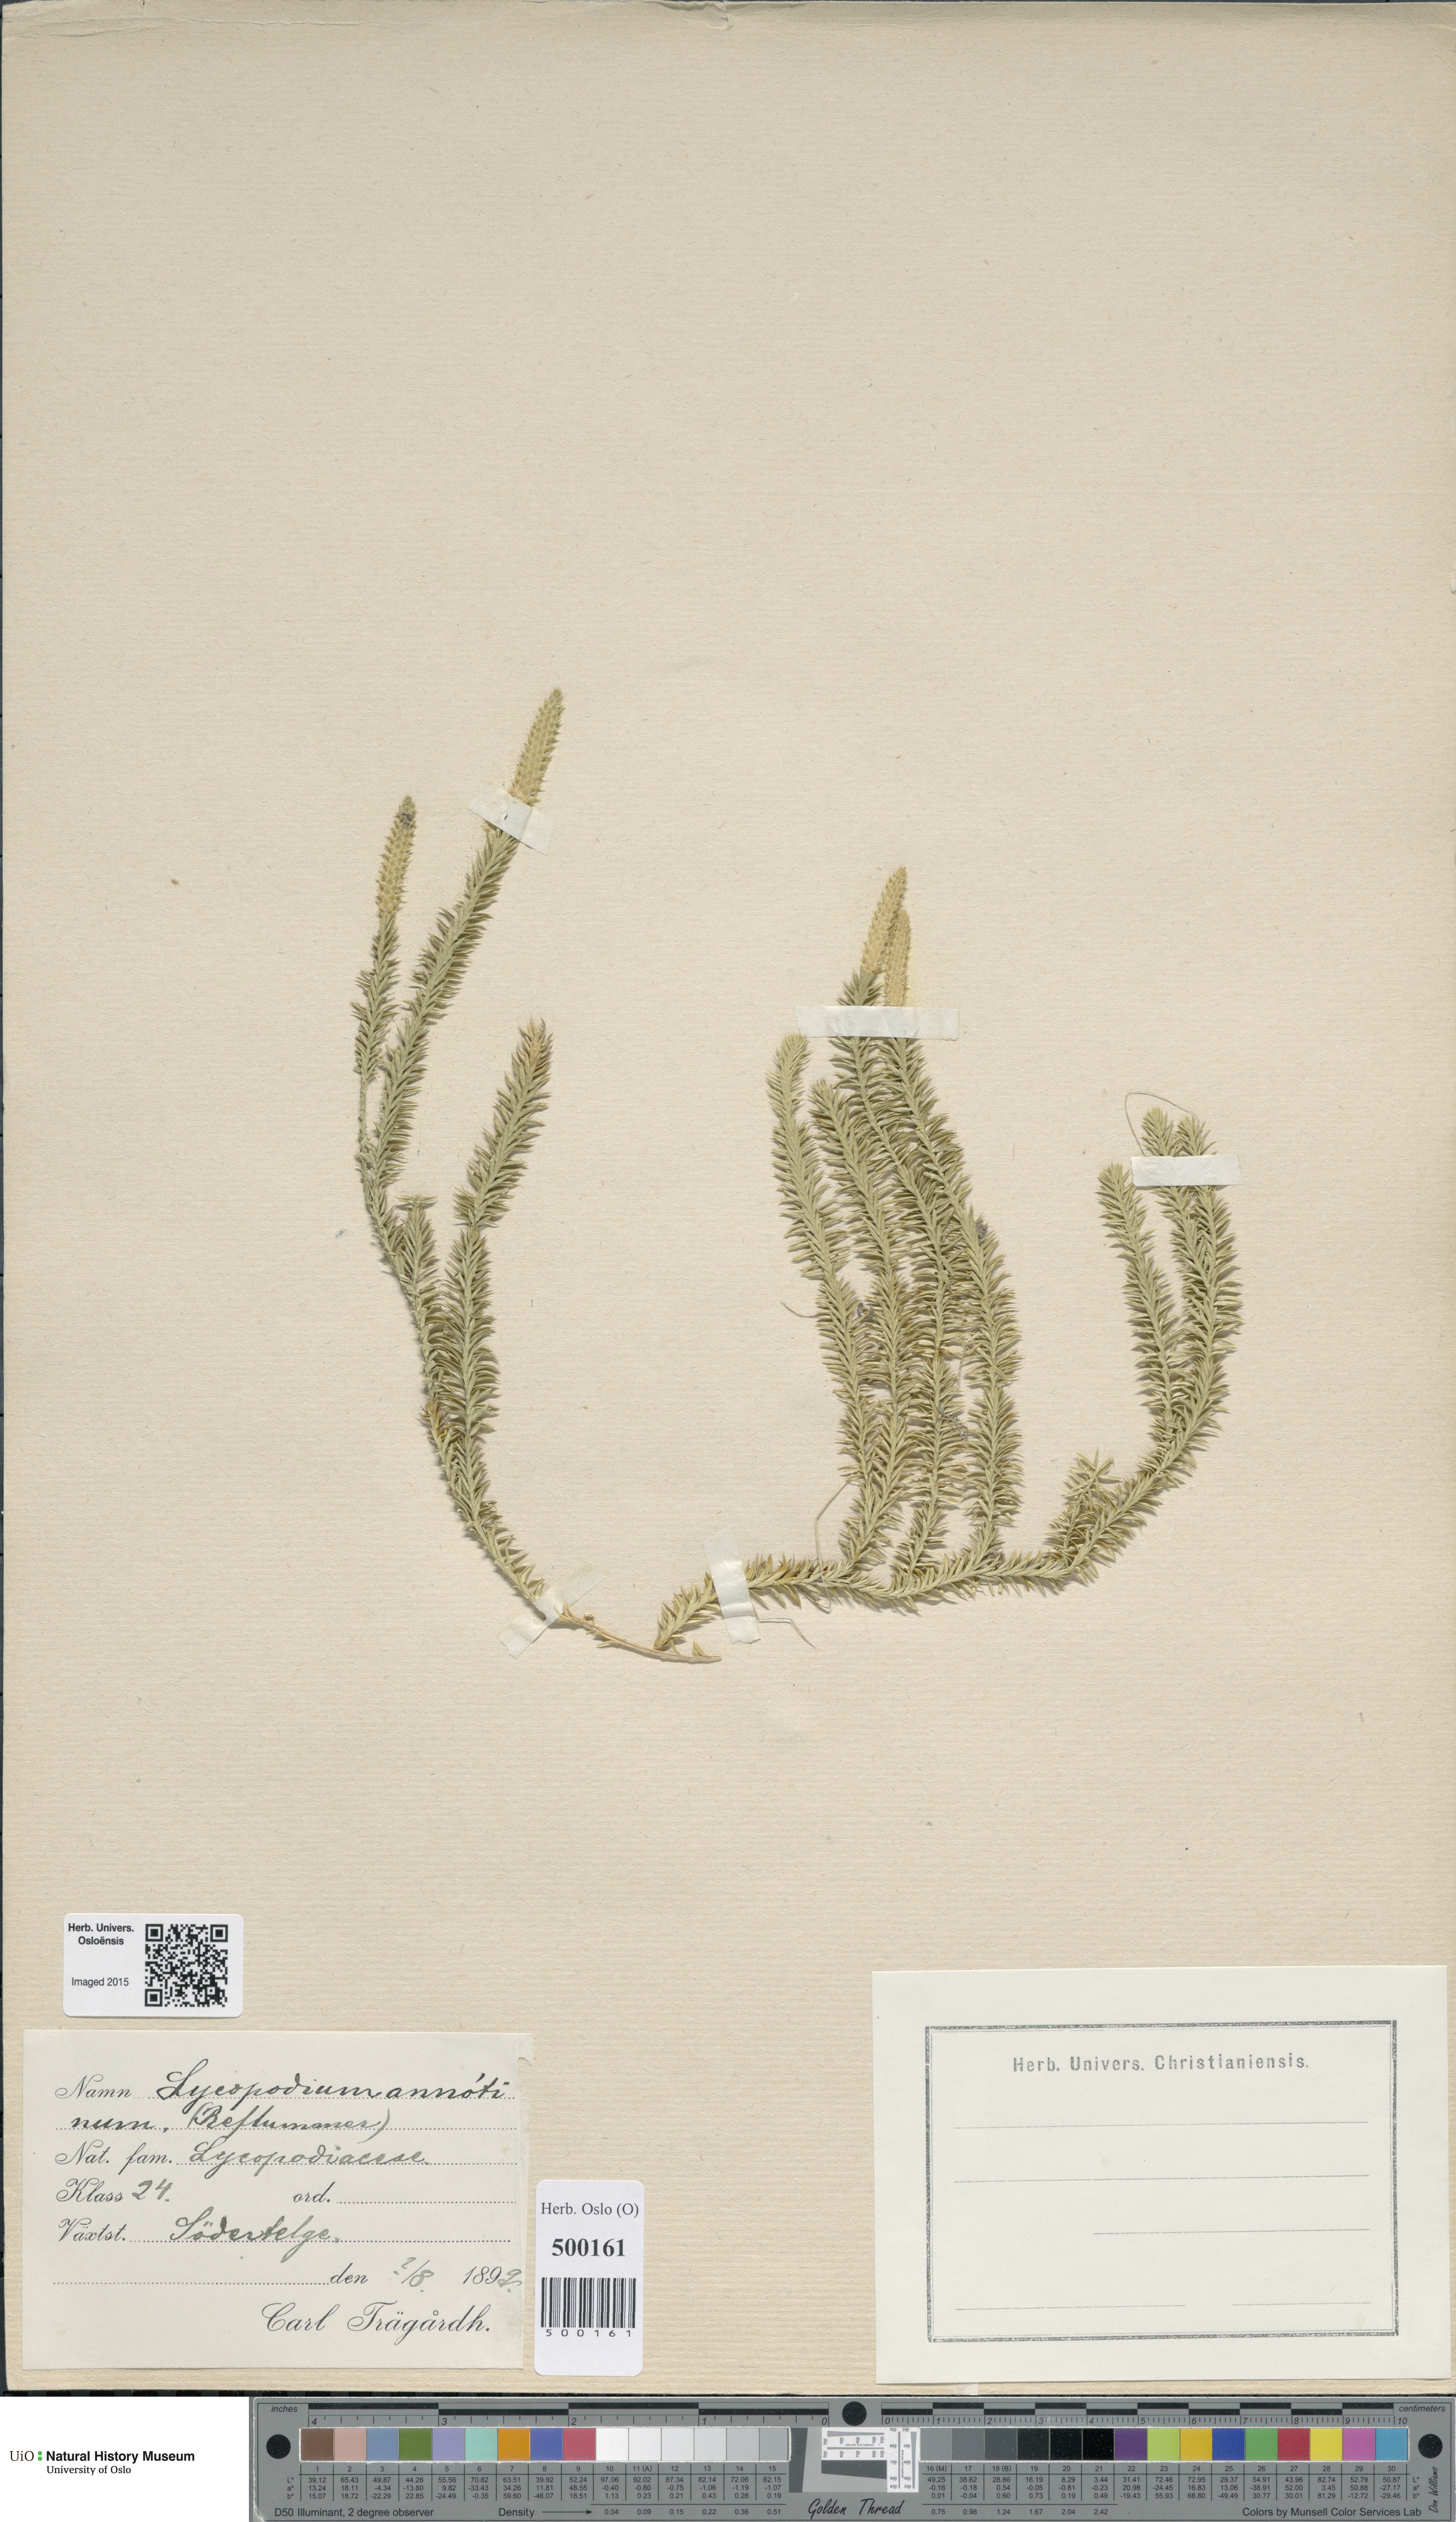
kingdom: Plantae
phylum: Tracheophyta
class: Lycopodiopsida
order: Lycopodiales
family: Lycopodiaceae
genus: Spinulum
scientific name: Spinulum annotinum
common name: Interrupted club-moss
